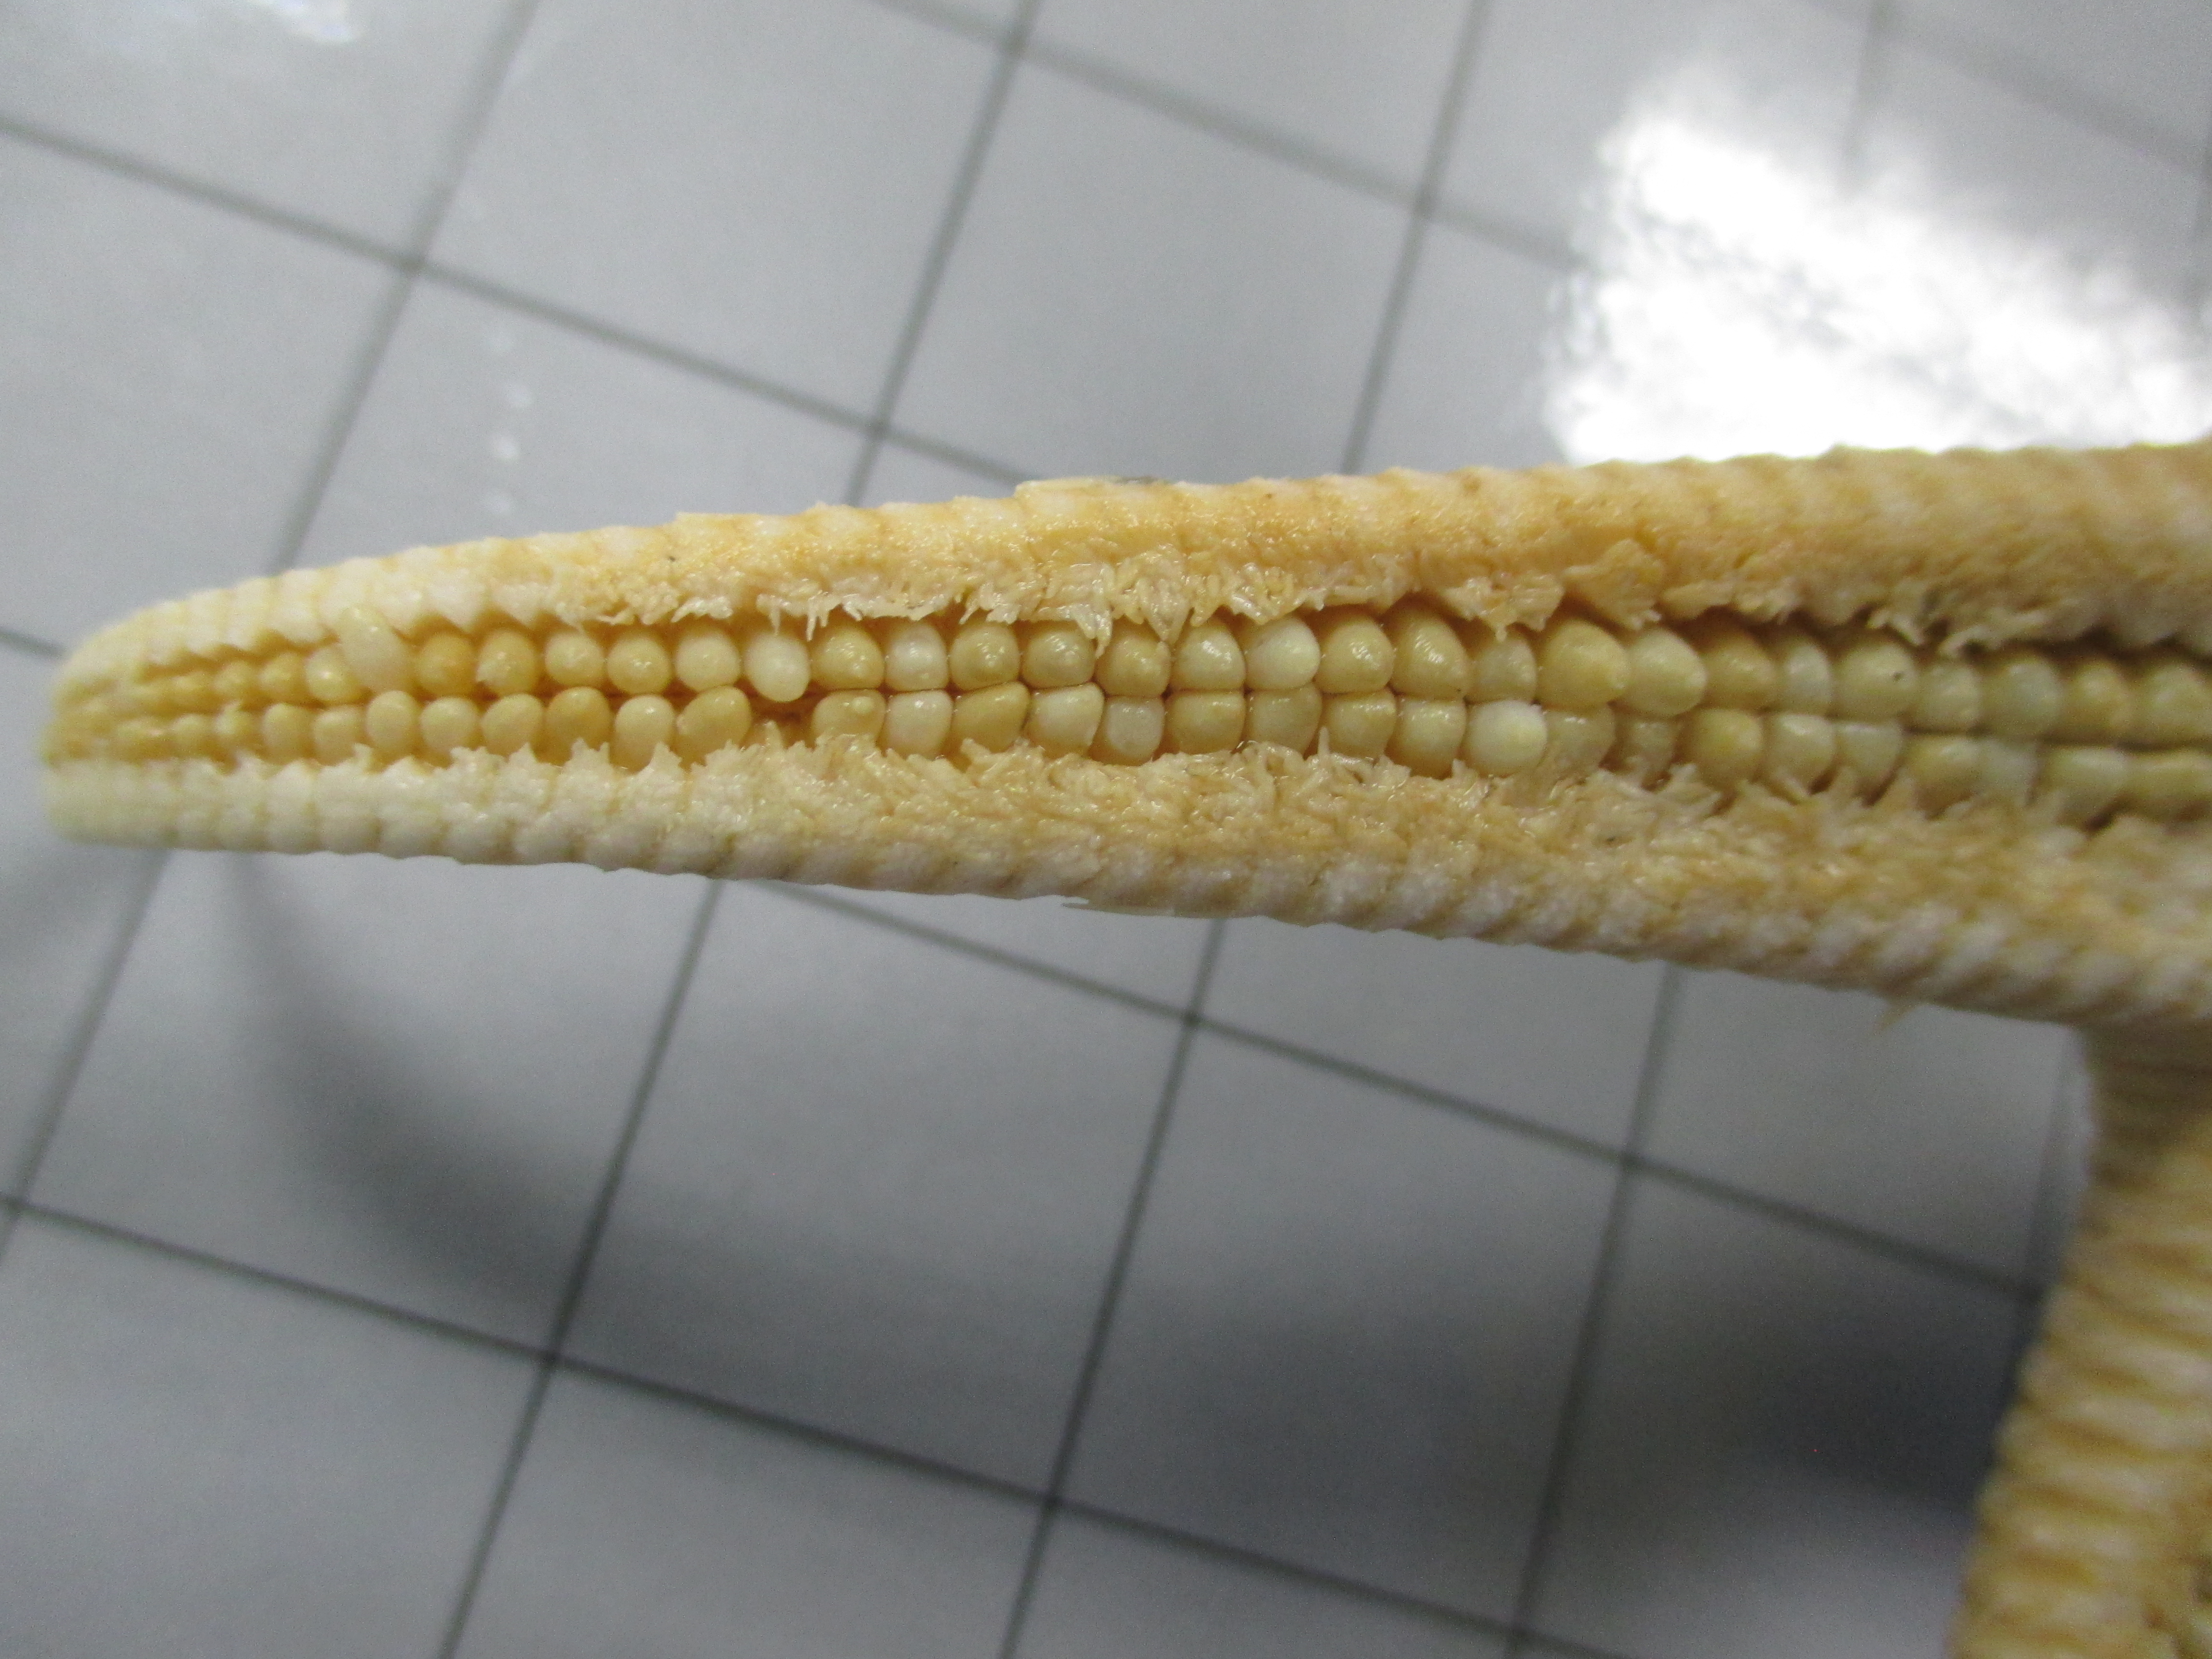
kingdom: Animalia
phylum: Echinodermata
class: Asteroidea
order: Paxillosida
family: Astropectinidae
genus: Psilaster
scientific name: Psilaster acuminatus
